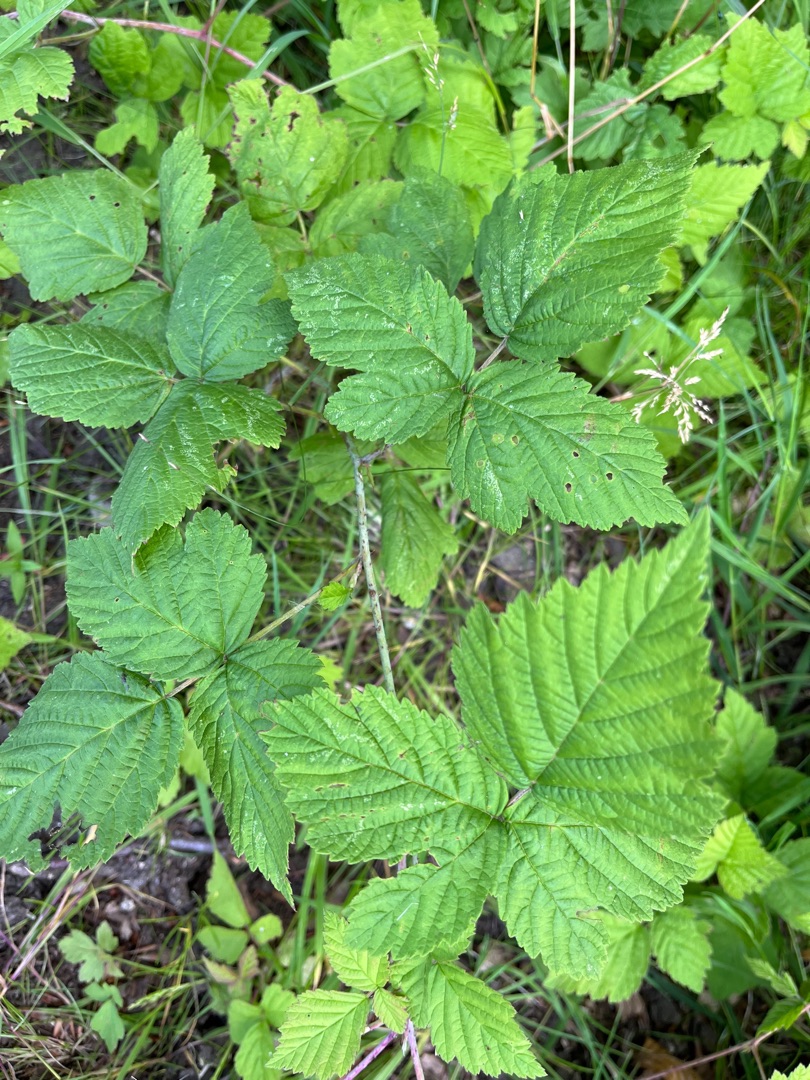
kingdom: Plantae
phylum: Tracheophyta
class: Magnoliopsida
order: Rosales
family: Rosaceae
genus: Rubus
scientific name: Rubus caesius
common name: Korbær
